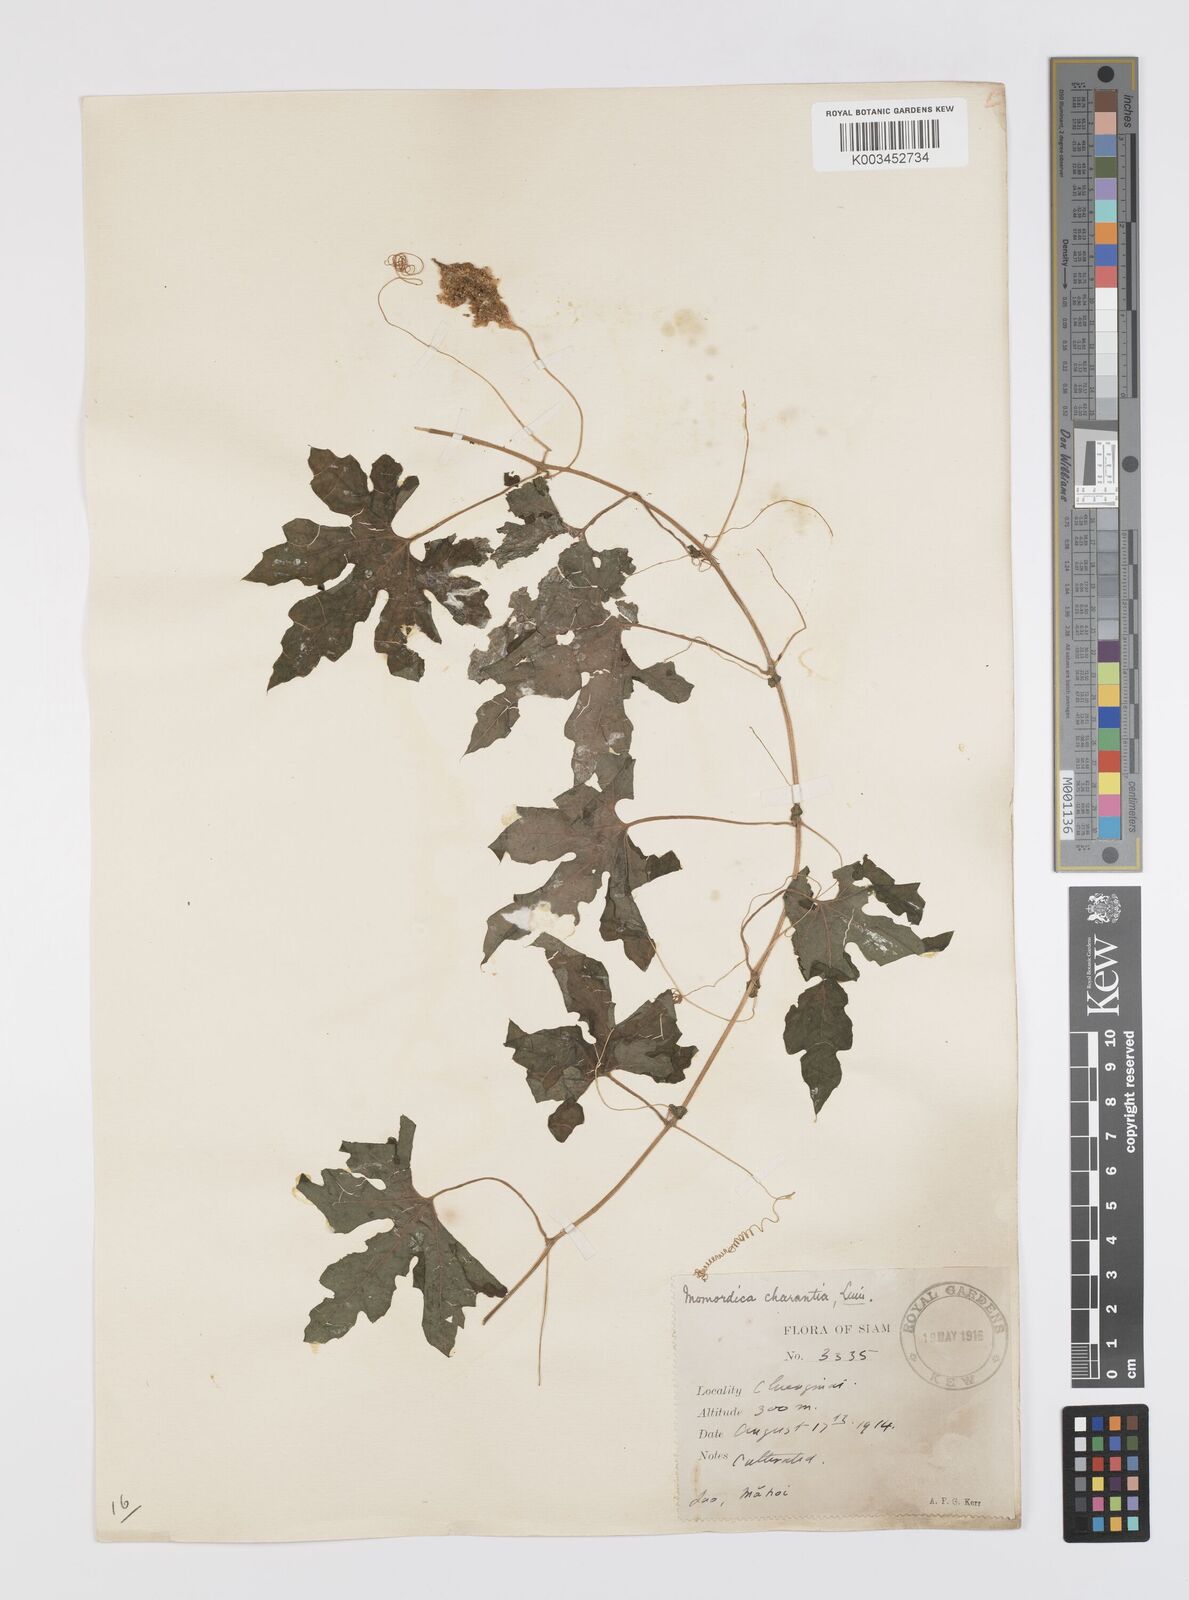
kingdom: Plantae
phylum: Tracheophyta
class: Magnoliopsida
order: Cucurbitales
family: Cucurbitaceae
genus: Momordica
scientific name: Momordica charantia
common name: Balsampear
